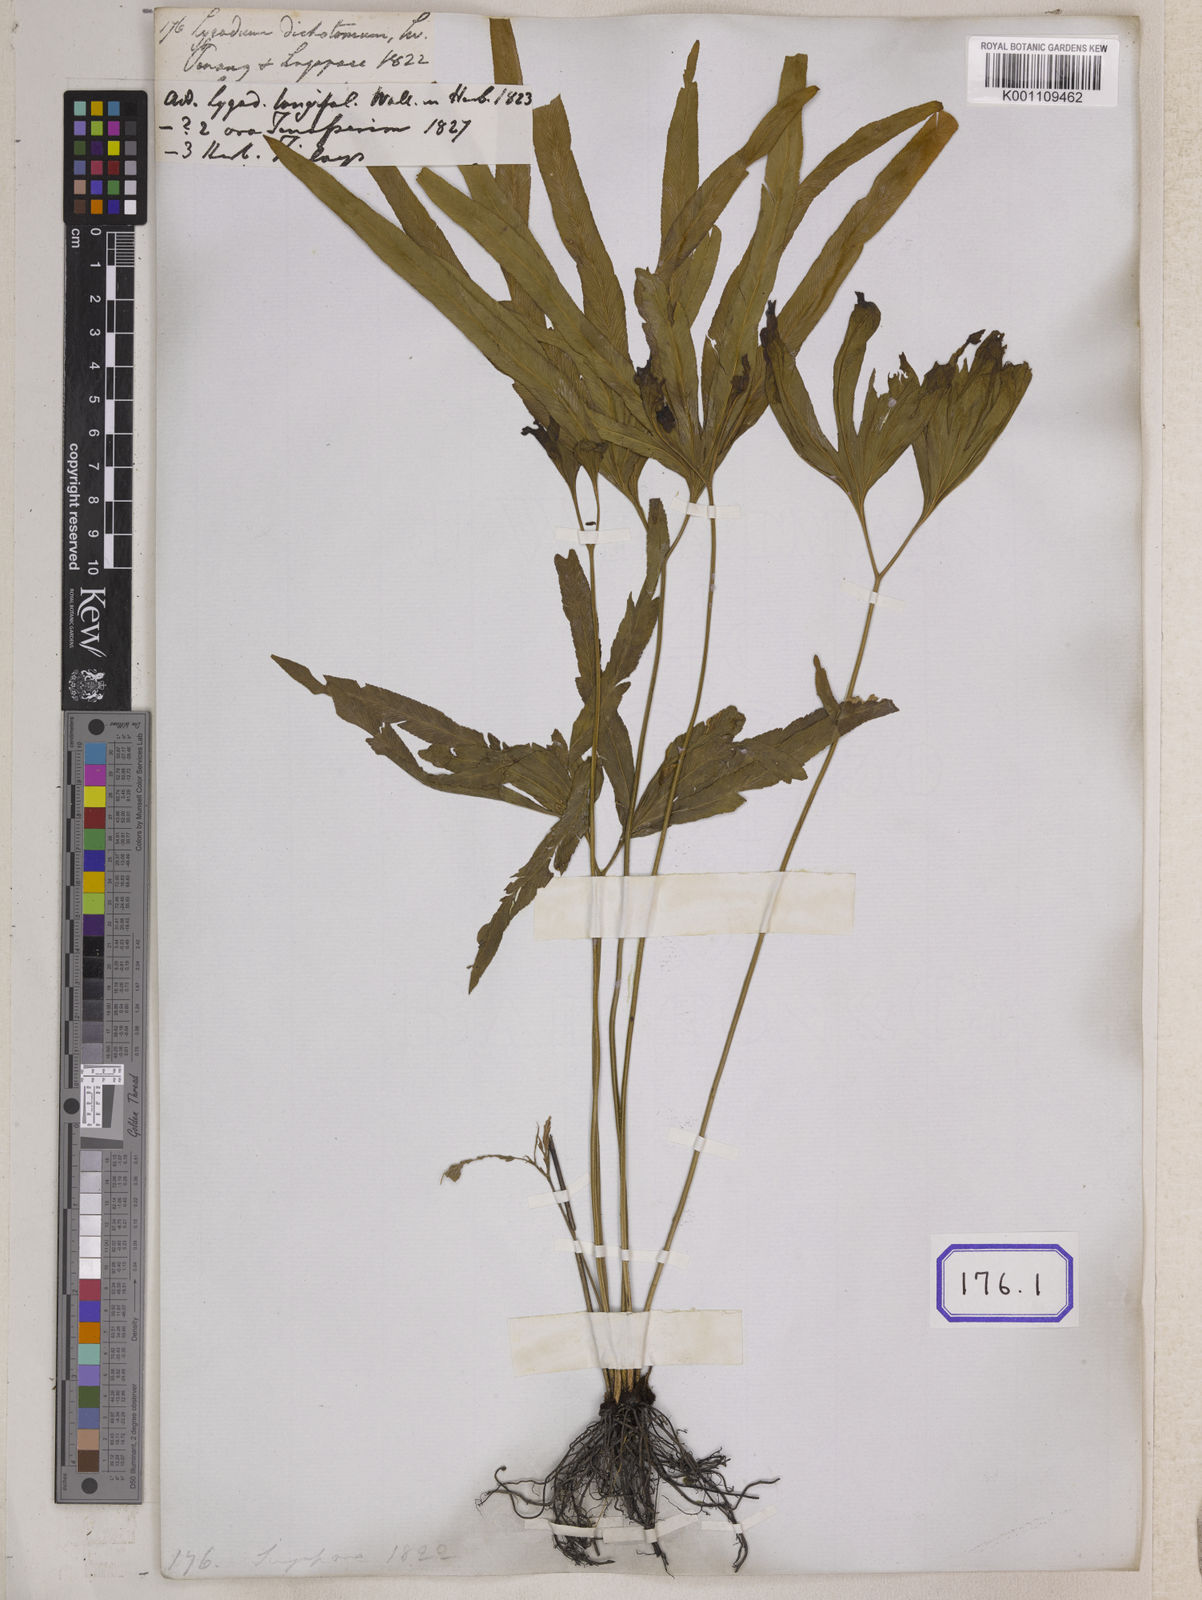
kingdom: Plantae
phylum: Tracheophyta
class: Polypodiopsida
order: Schizaeales
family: Lygodiaceae
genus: Lygodium
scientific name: Lygodium circinnatum
